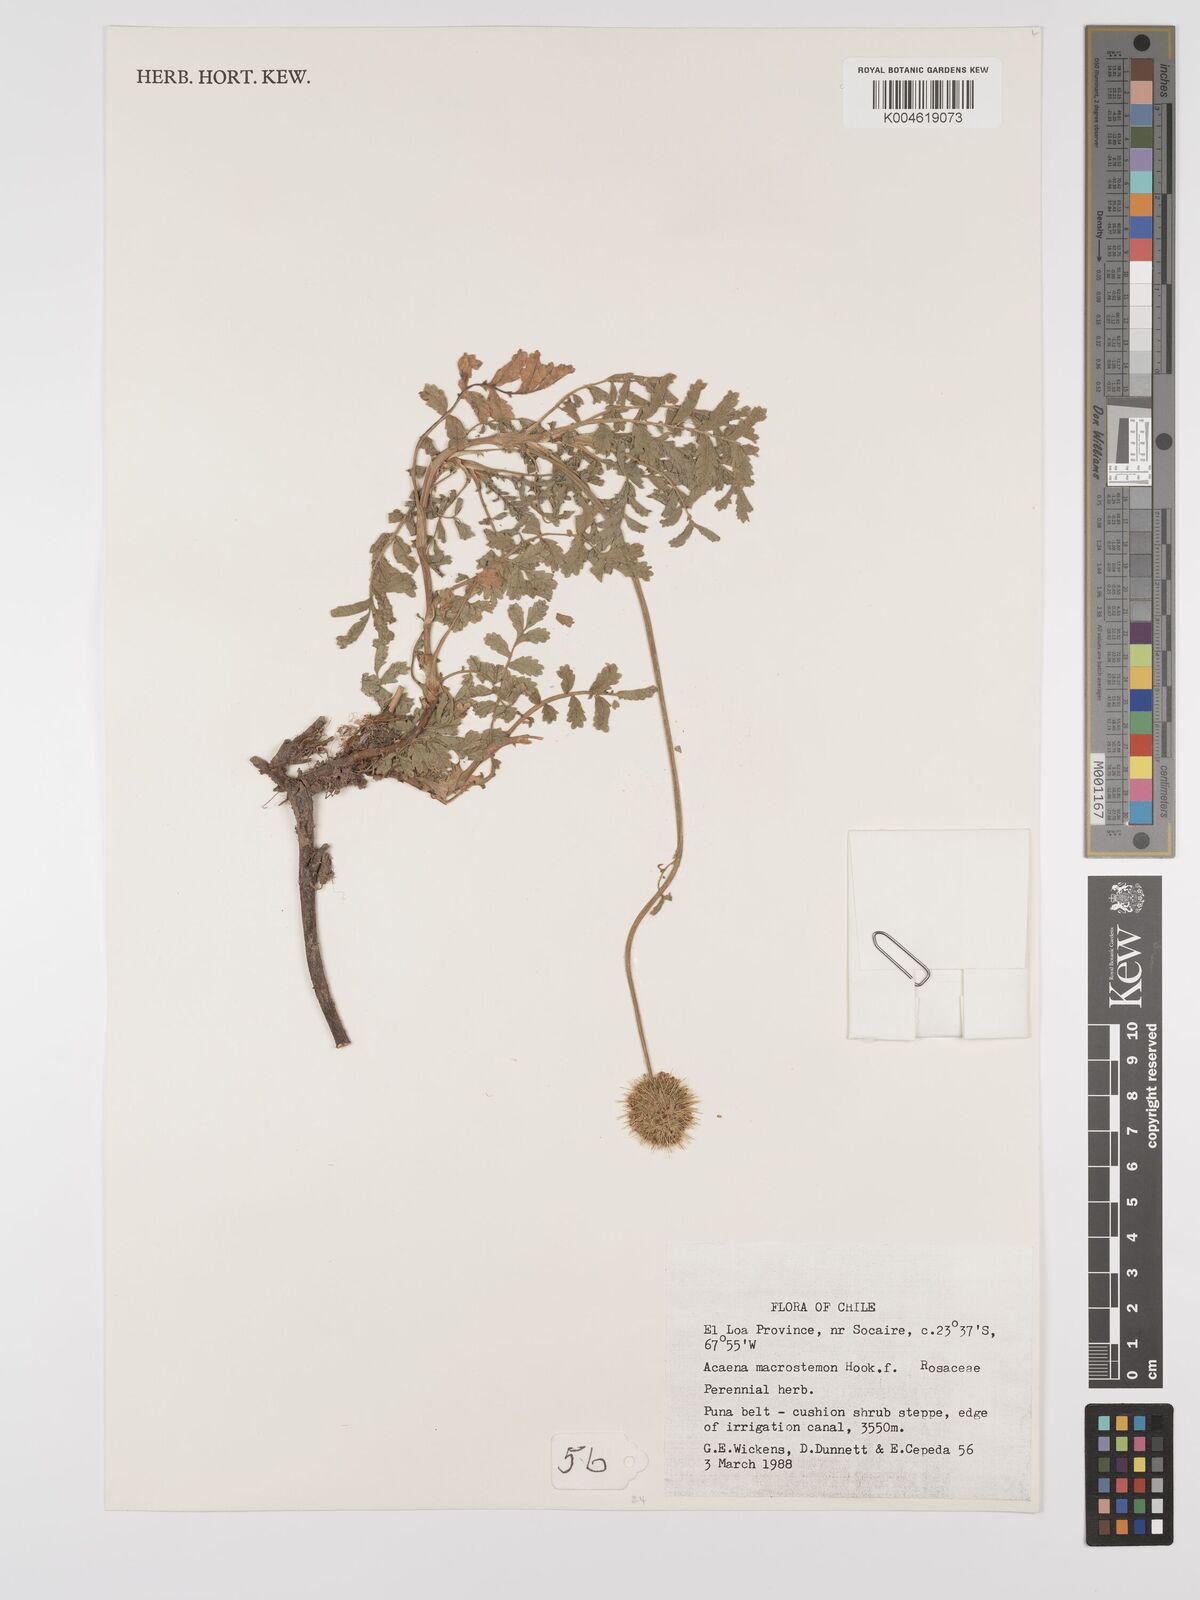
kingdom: Plantae
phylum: Tracheophyta
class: Magnoliopsida
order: Rosales
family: Rosaceae
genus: Acaena
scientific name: Acaena magellanica
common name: New zealand burr
